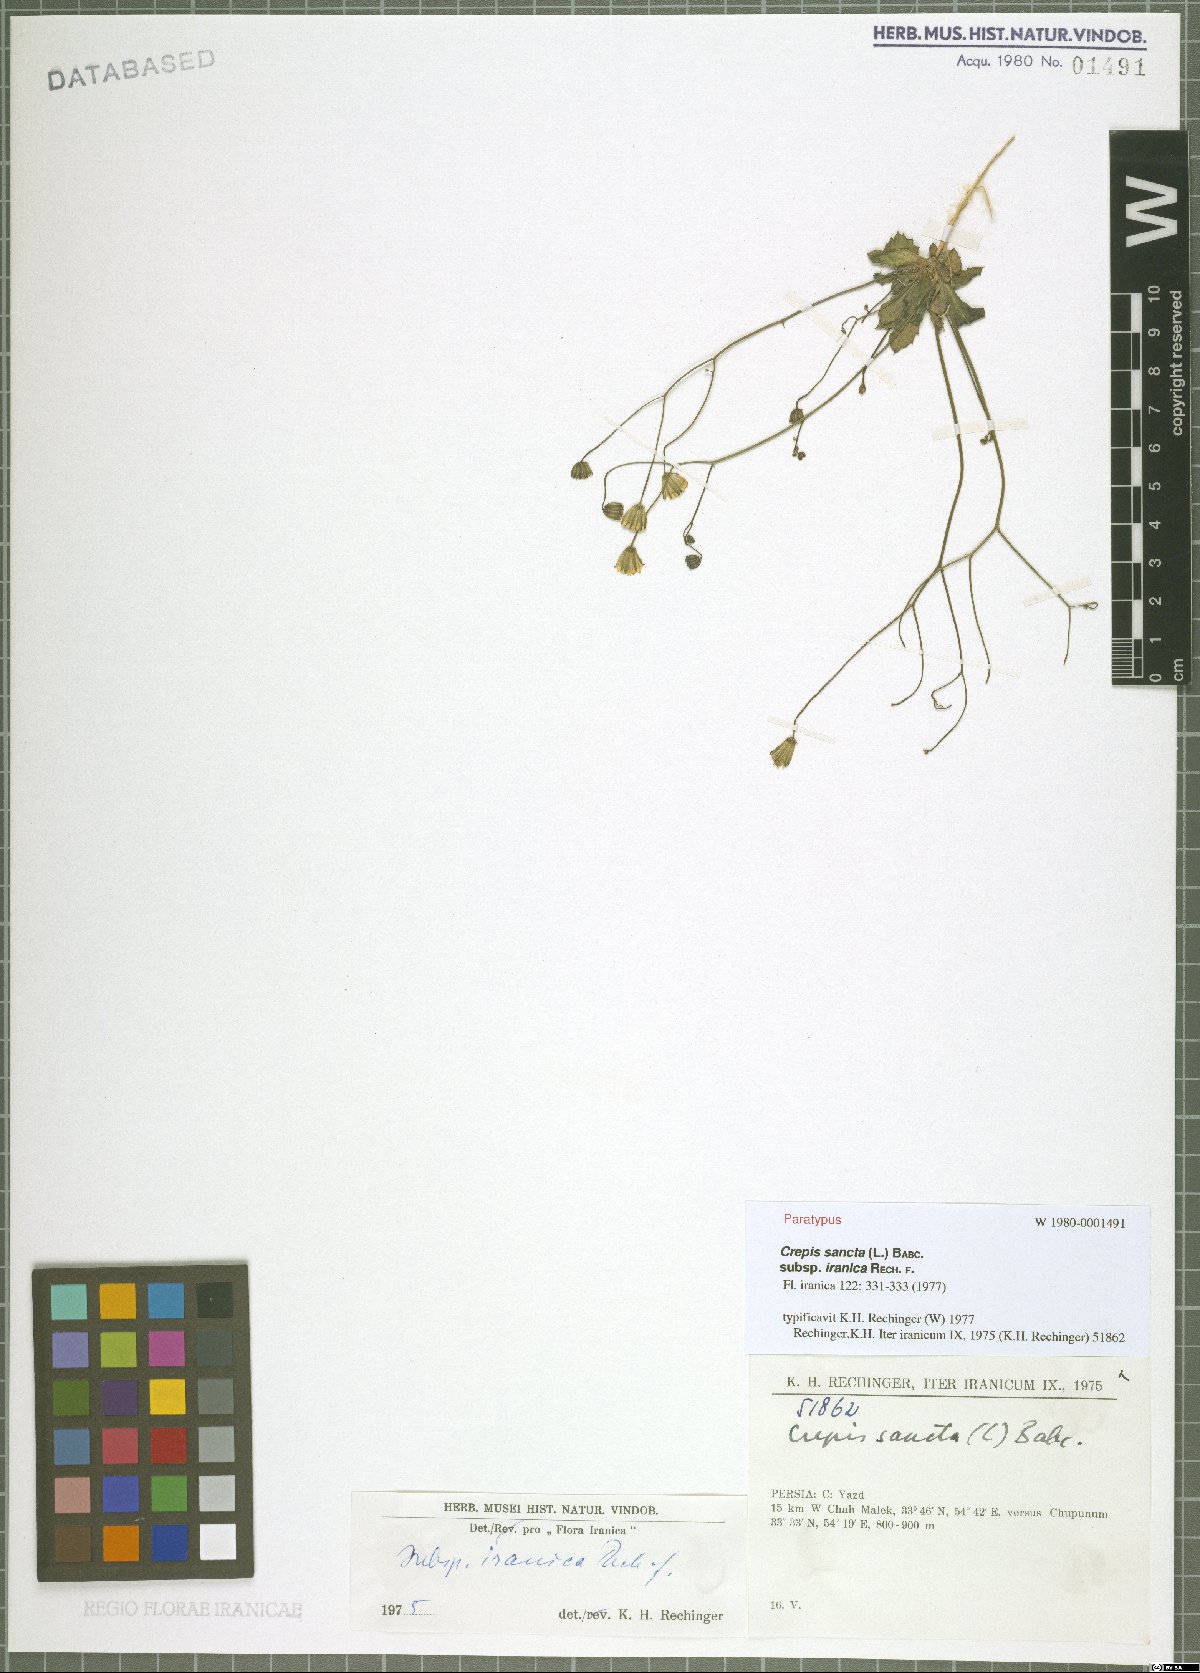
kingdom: Plantae
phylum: Tracheophyta
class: Magnoliopsida
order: Asterales
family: Asteraceae
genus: Crepis
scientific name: Crepis sancta
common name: Hawk's-beard
